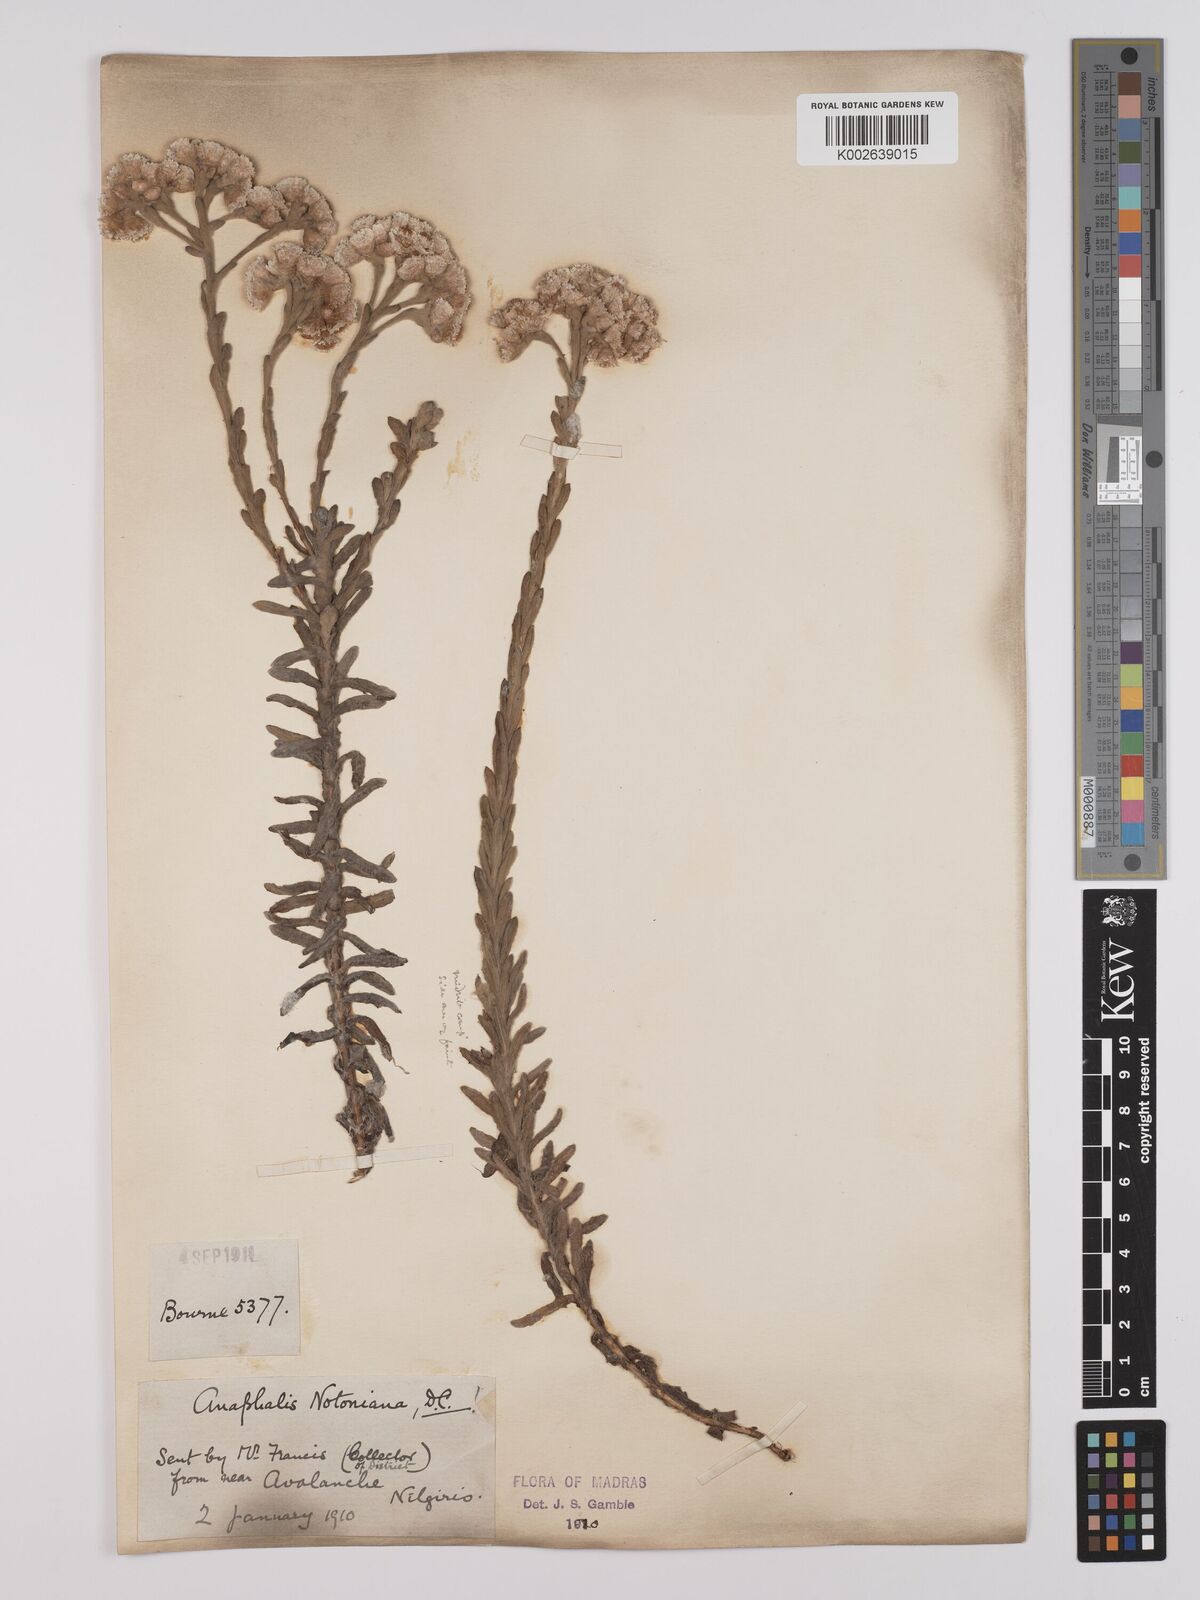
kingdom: Plantae
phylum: Tracheophyta
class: Magnoliopsida
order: Asterales
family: Asteraceae
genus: Anaphalis
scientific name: Anaphalis notoniana
